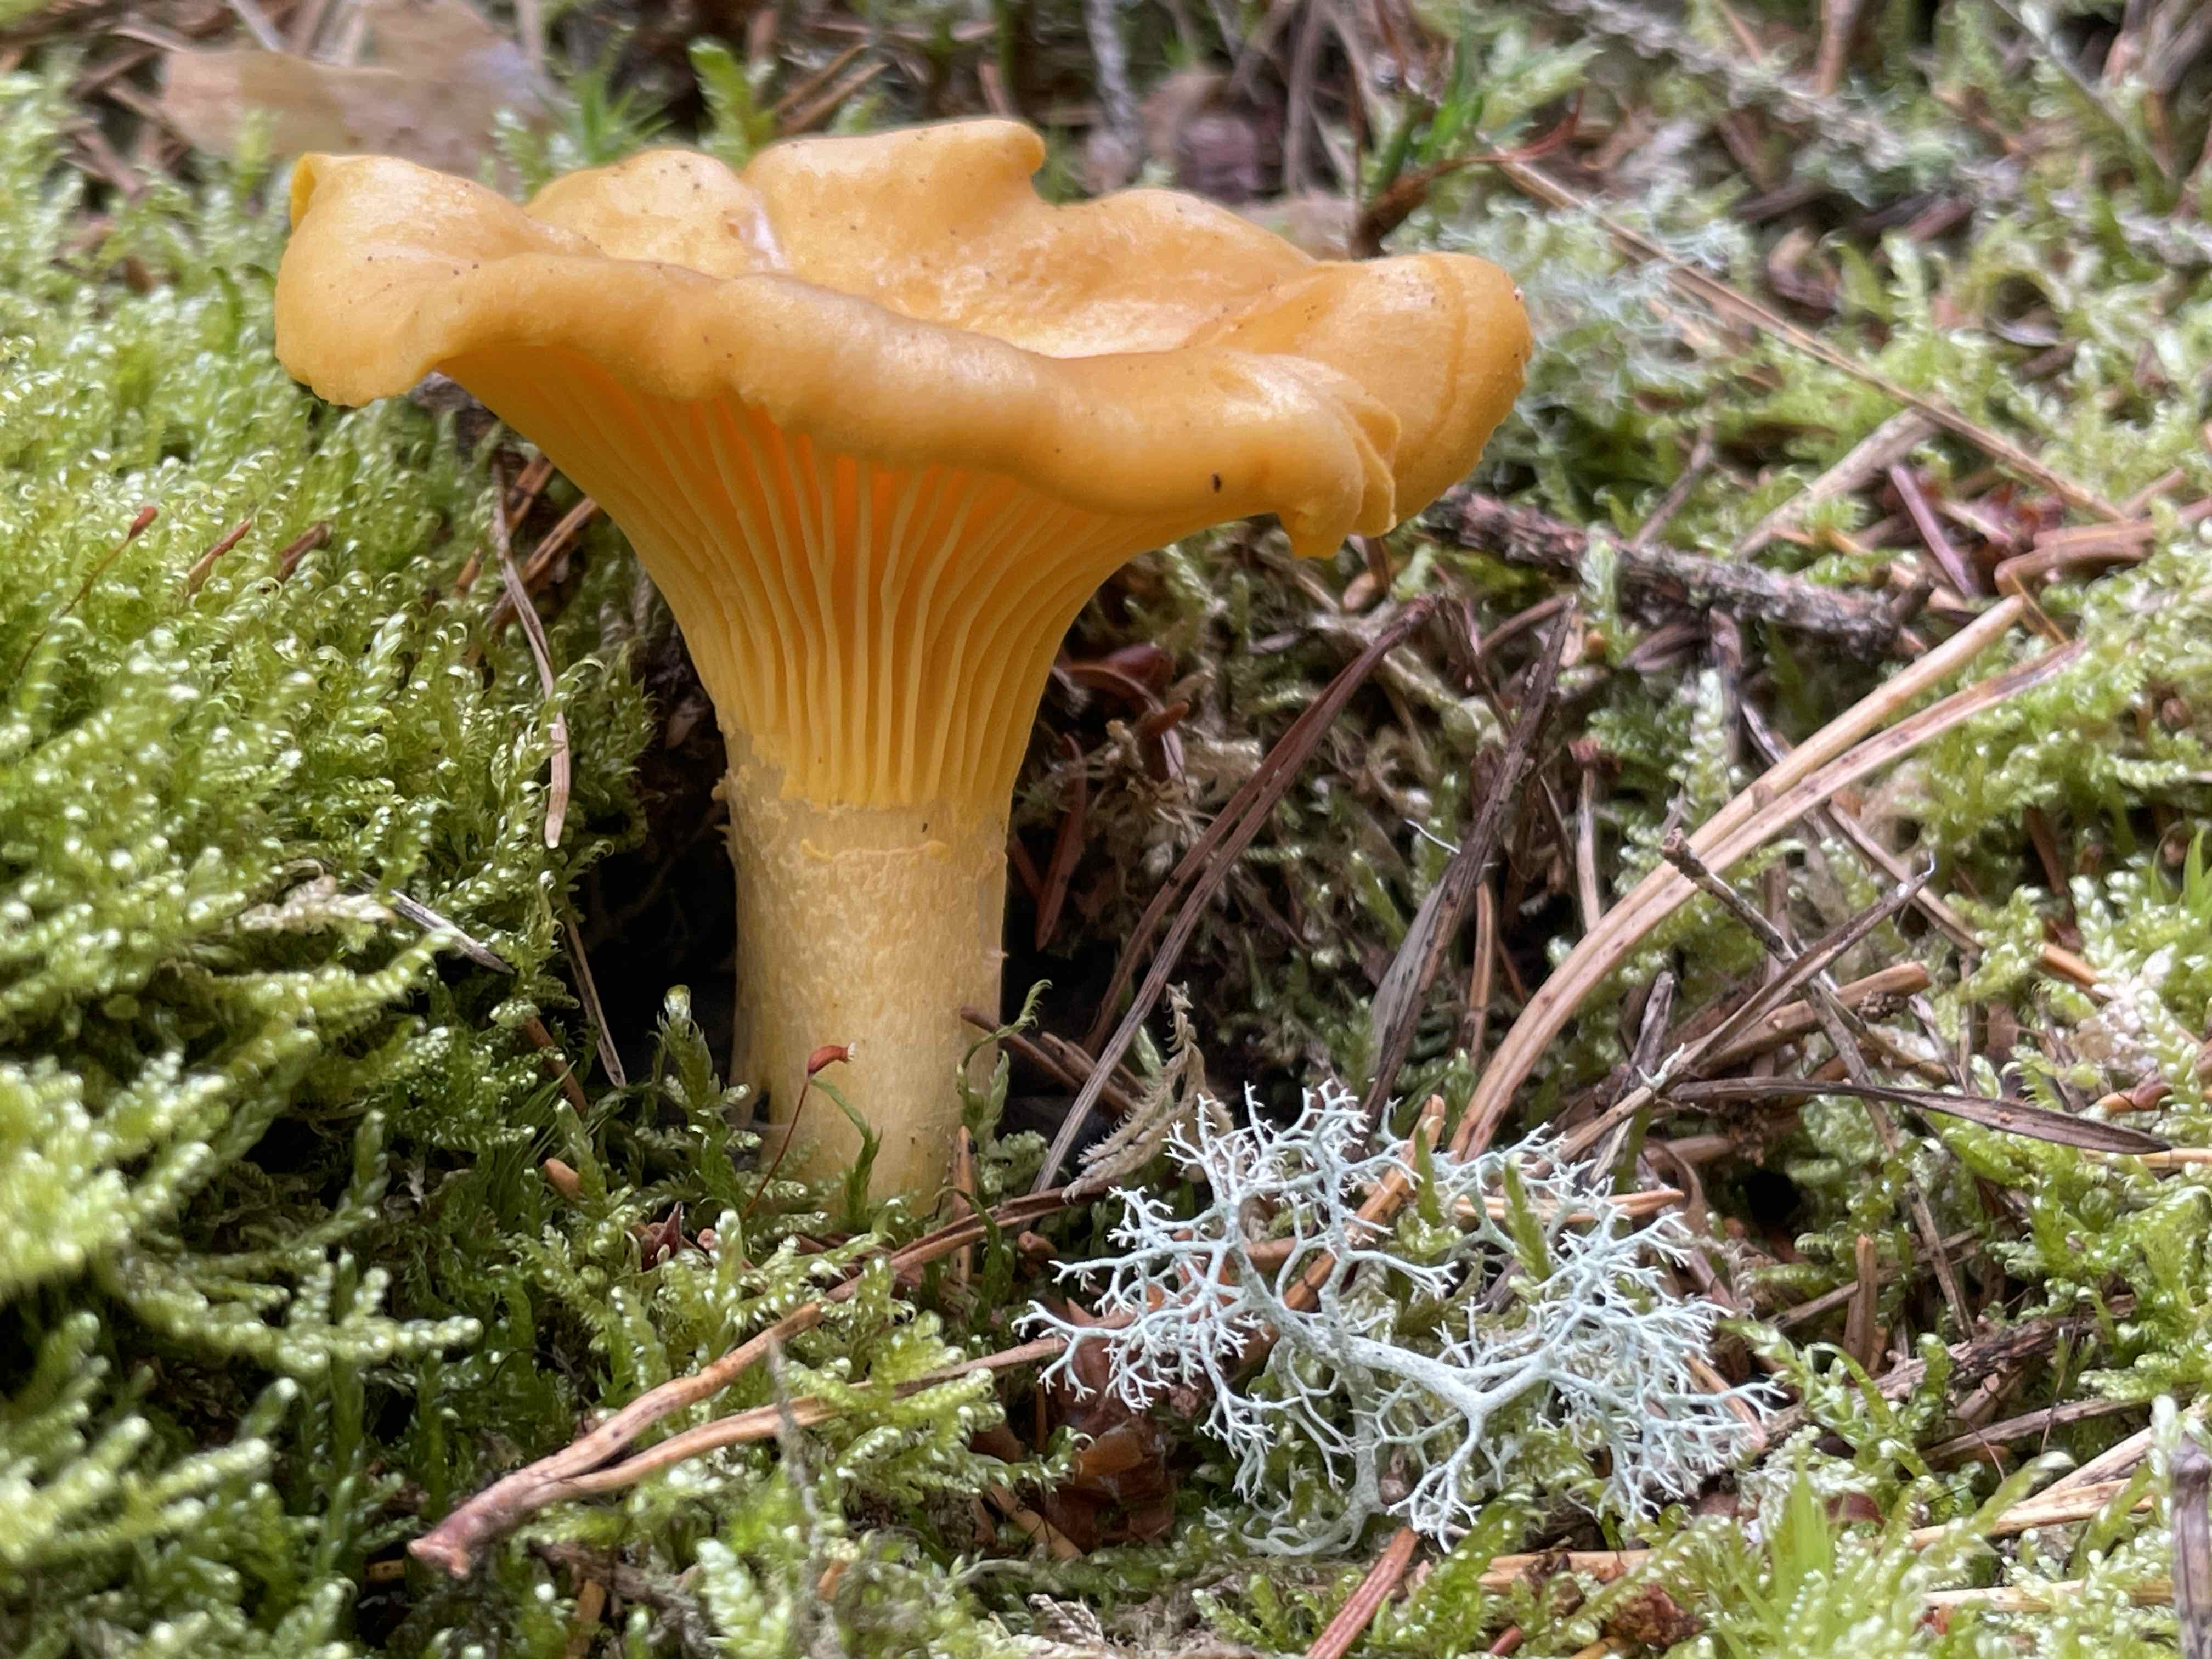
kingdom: Fungi
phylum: Basidiomycota
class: Agaricomycetes
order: Cantharellales
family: Hydnaceae
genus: Cantharellus
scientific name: Cantharellus cibarius
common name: almindelig kantarel
